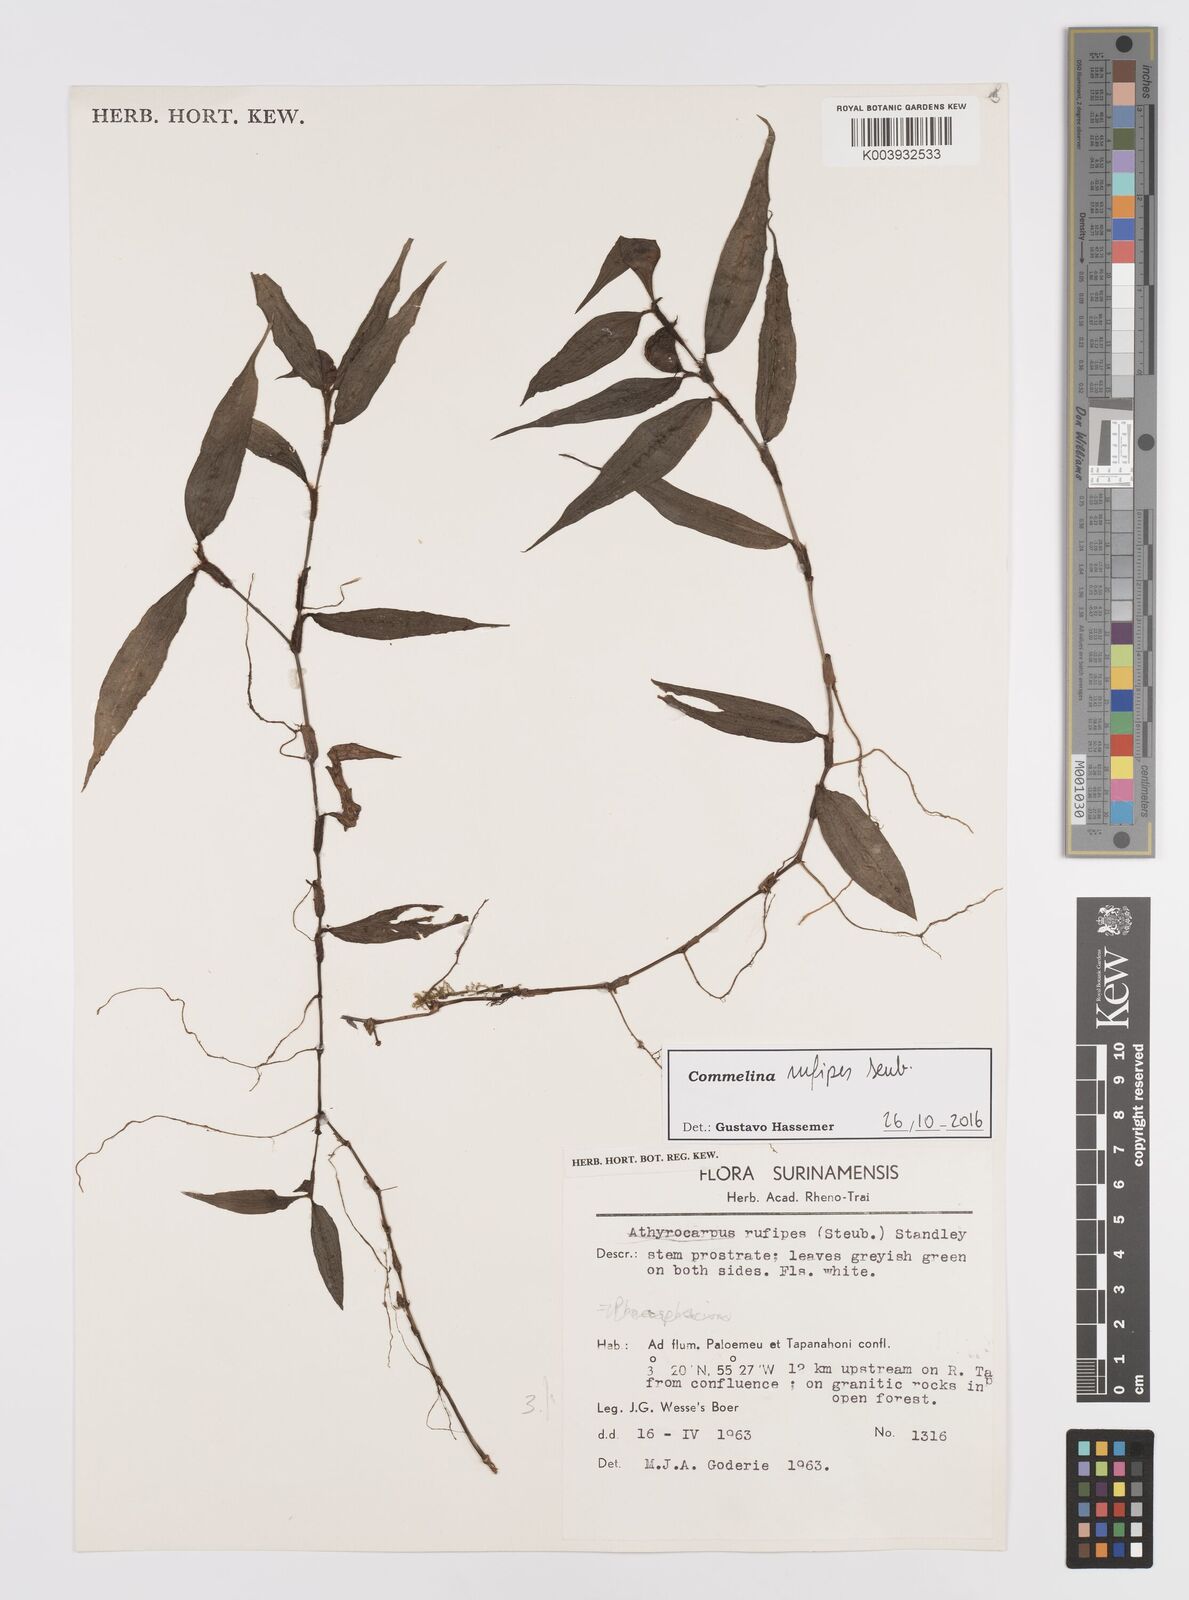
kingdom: Plantae
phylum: Tracheophyta
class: Liliopsida
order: Commelinales
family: Commelinaceae
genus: Commelina
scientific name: Commelina rufipes
